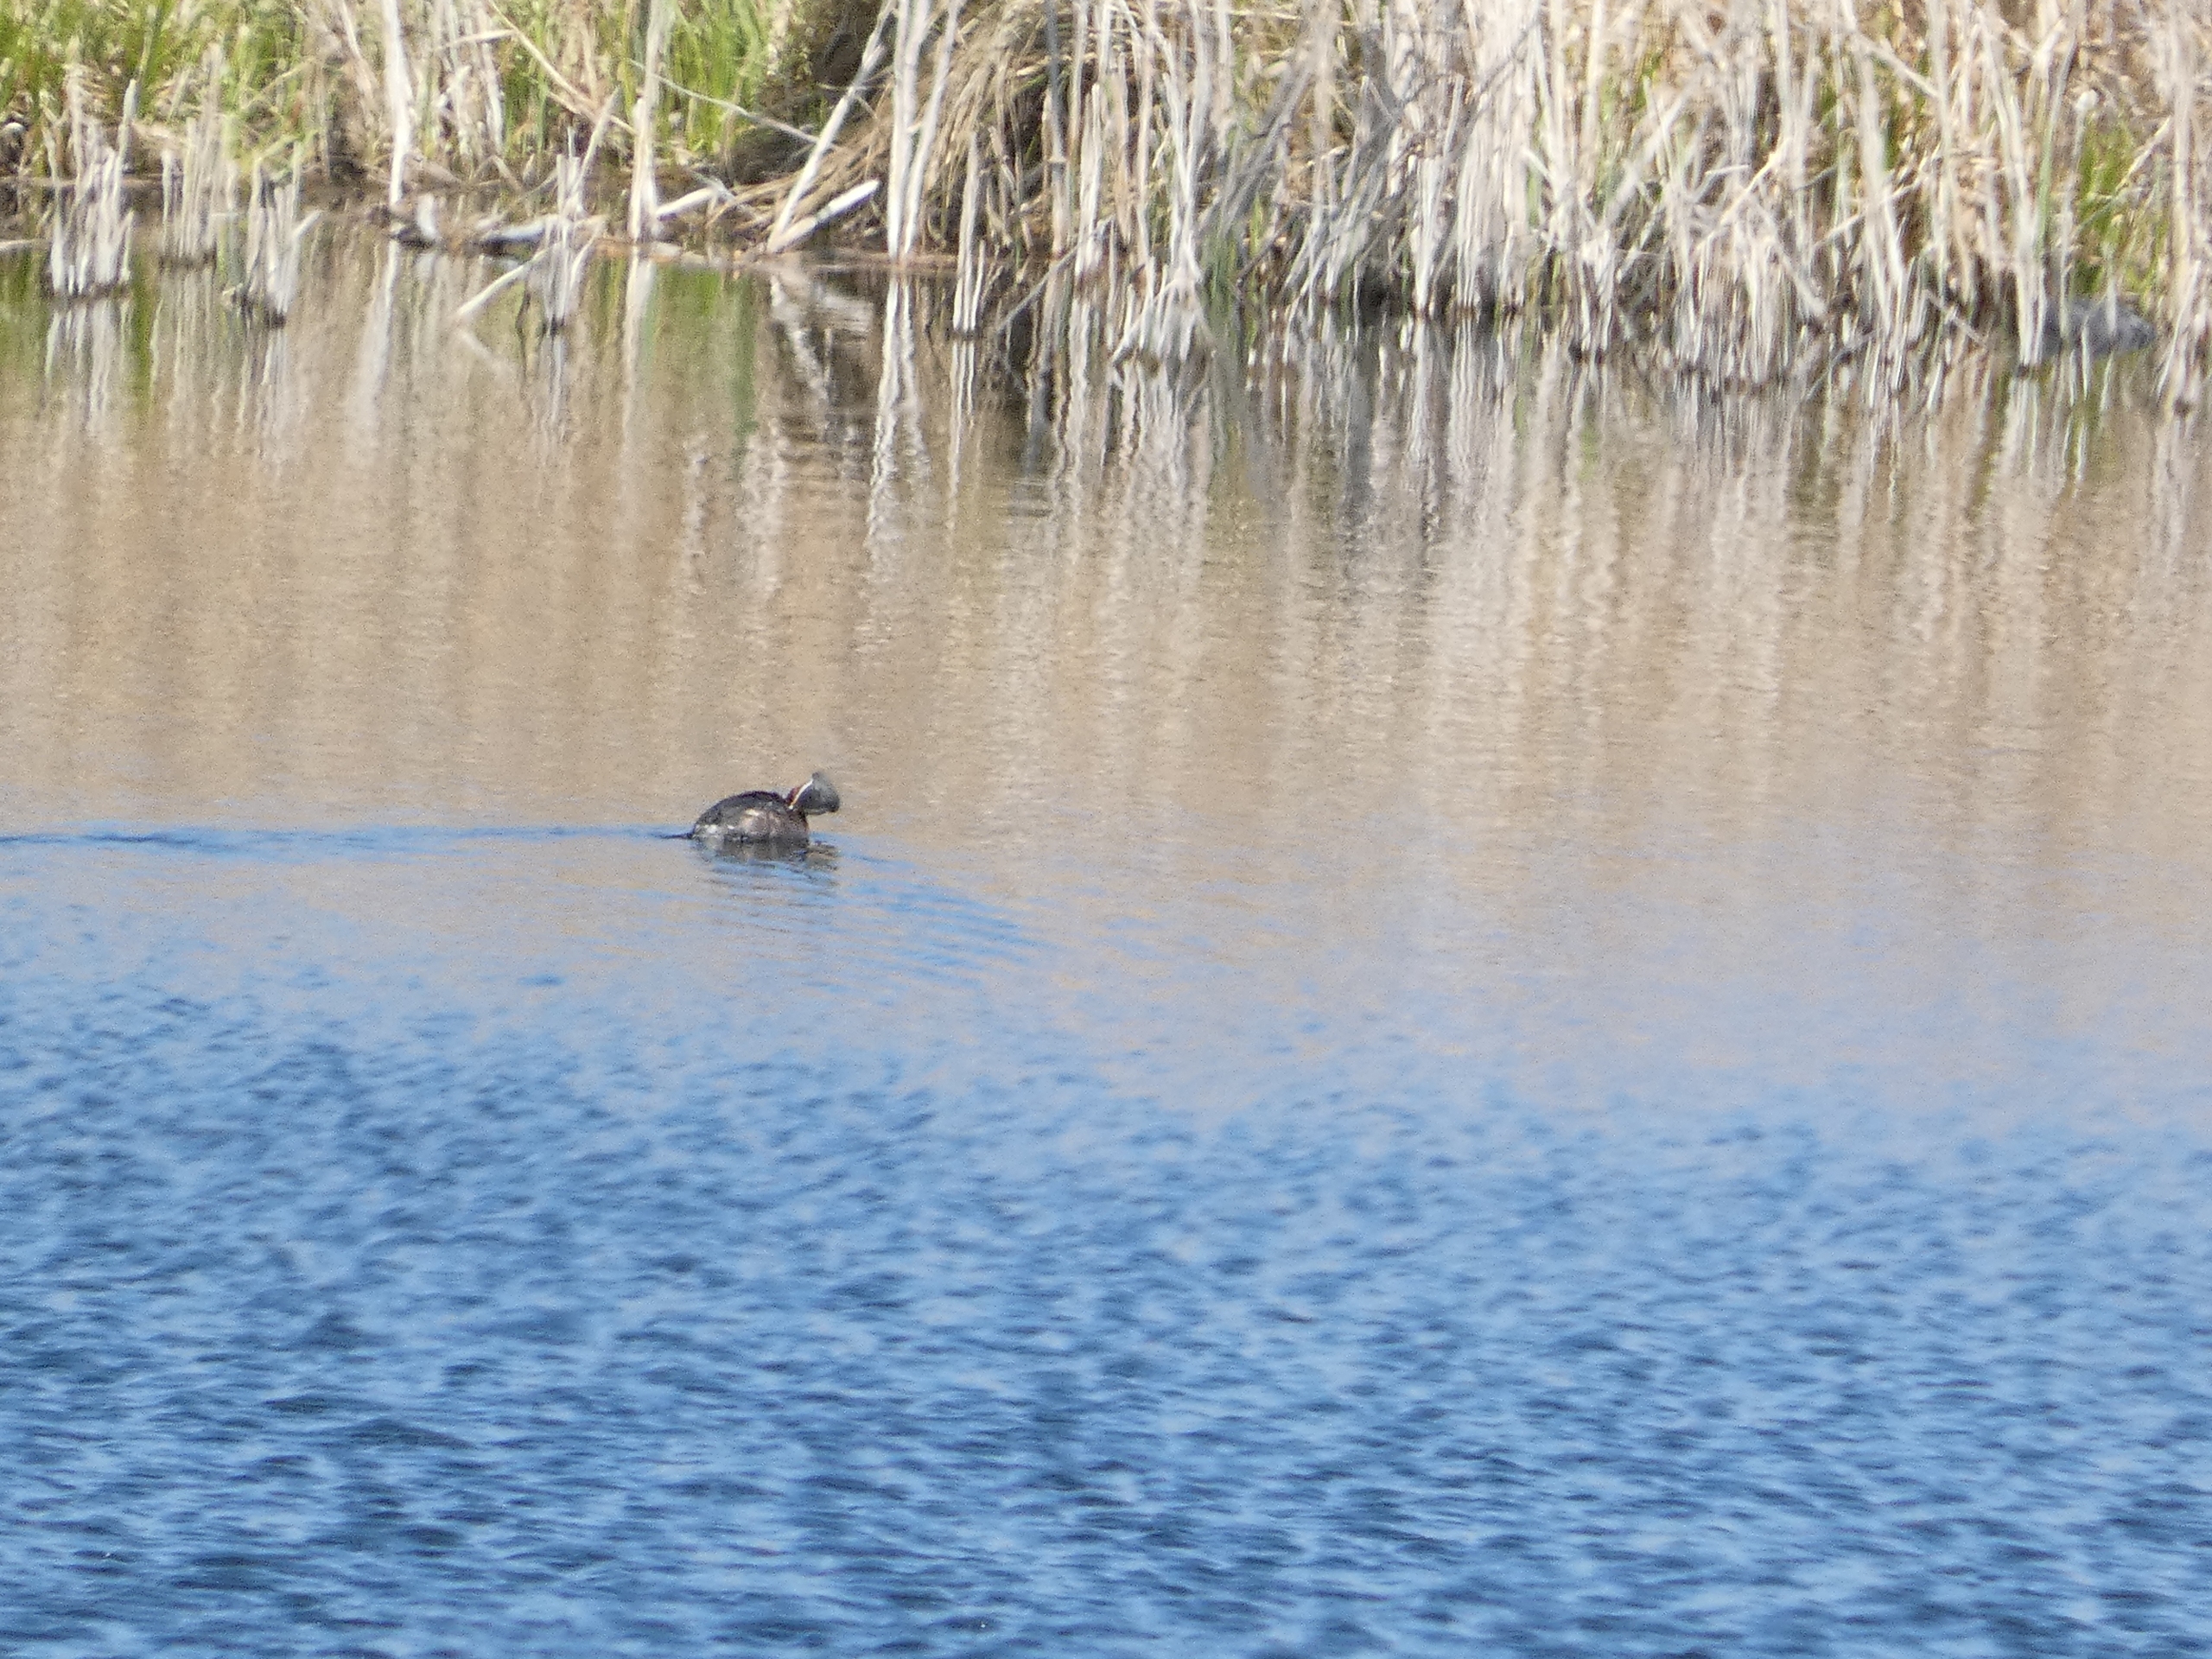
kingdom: Animalia
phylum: Chordata
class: Aves
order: Podicipediformes
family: Podicipedidae
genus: Podiceps
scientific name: Podiceps grisegena
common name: Gråstrubet lappedykker
